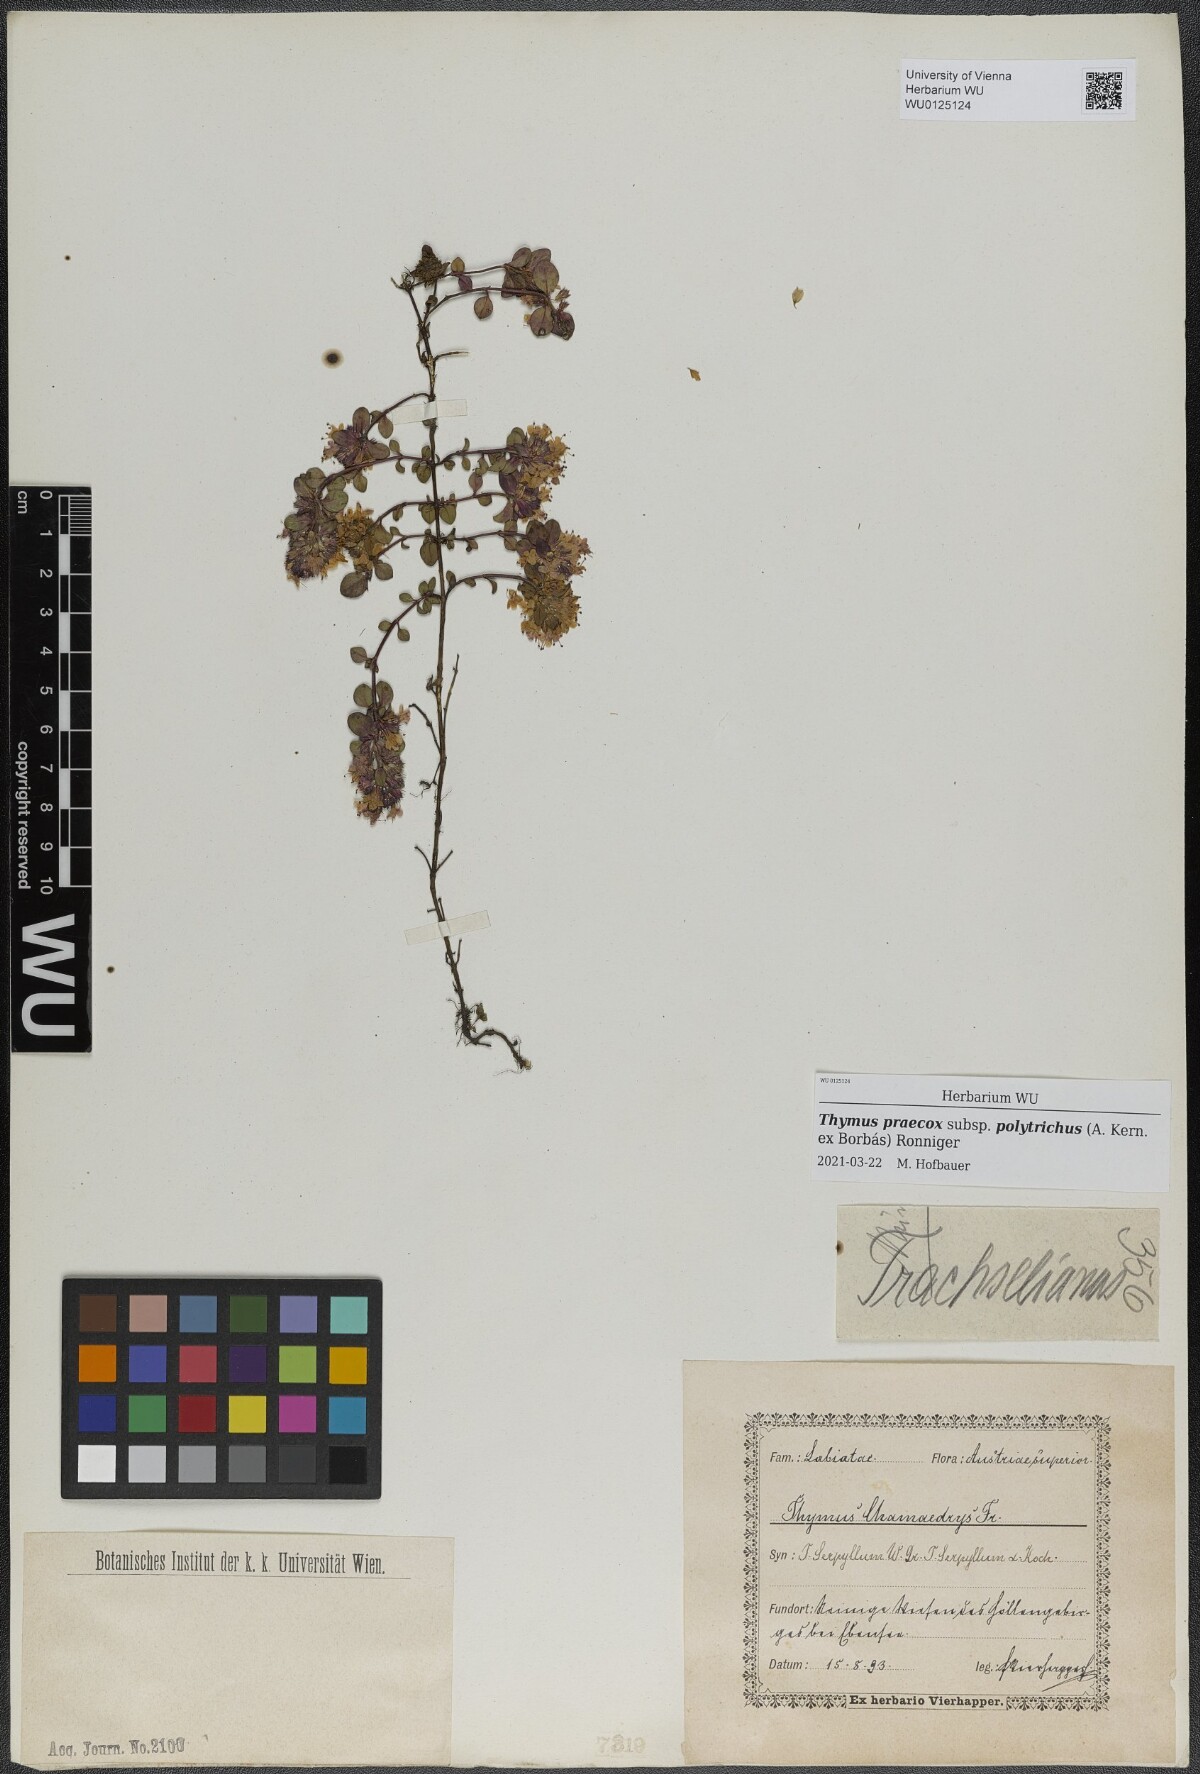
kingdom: Plantae
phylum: Tracheophyta
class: Magnoliopsida
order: Lamiales
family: Lamiaceae
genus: Thymus
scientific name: Thymus praecox
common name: Wild thyme
